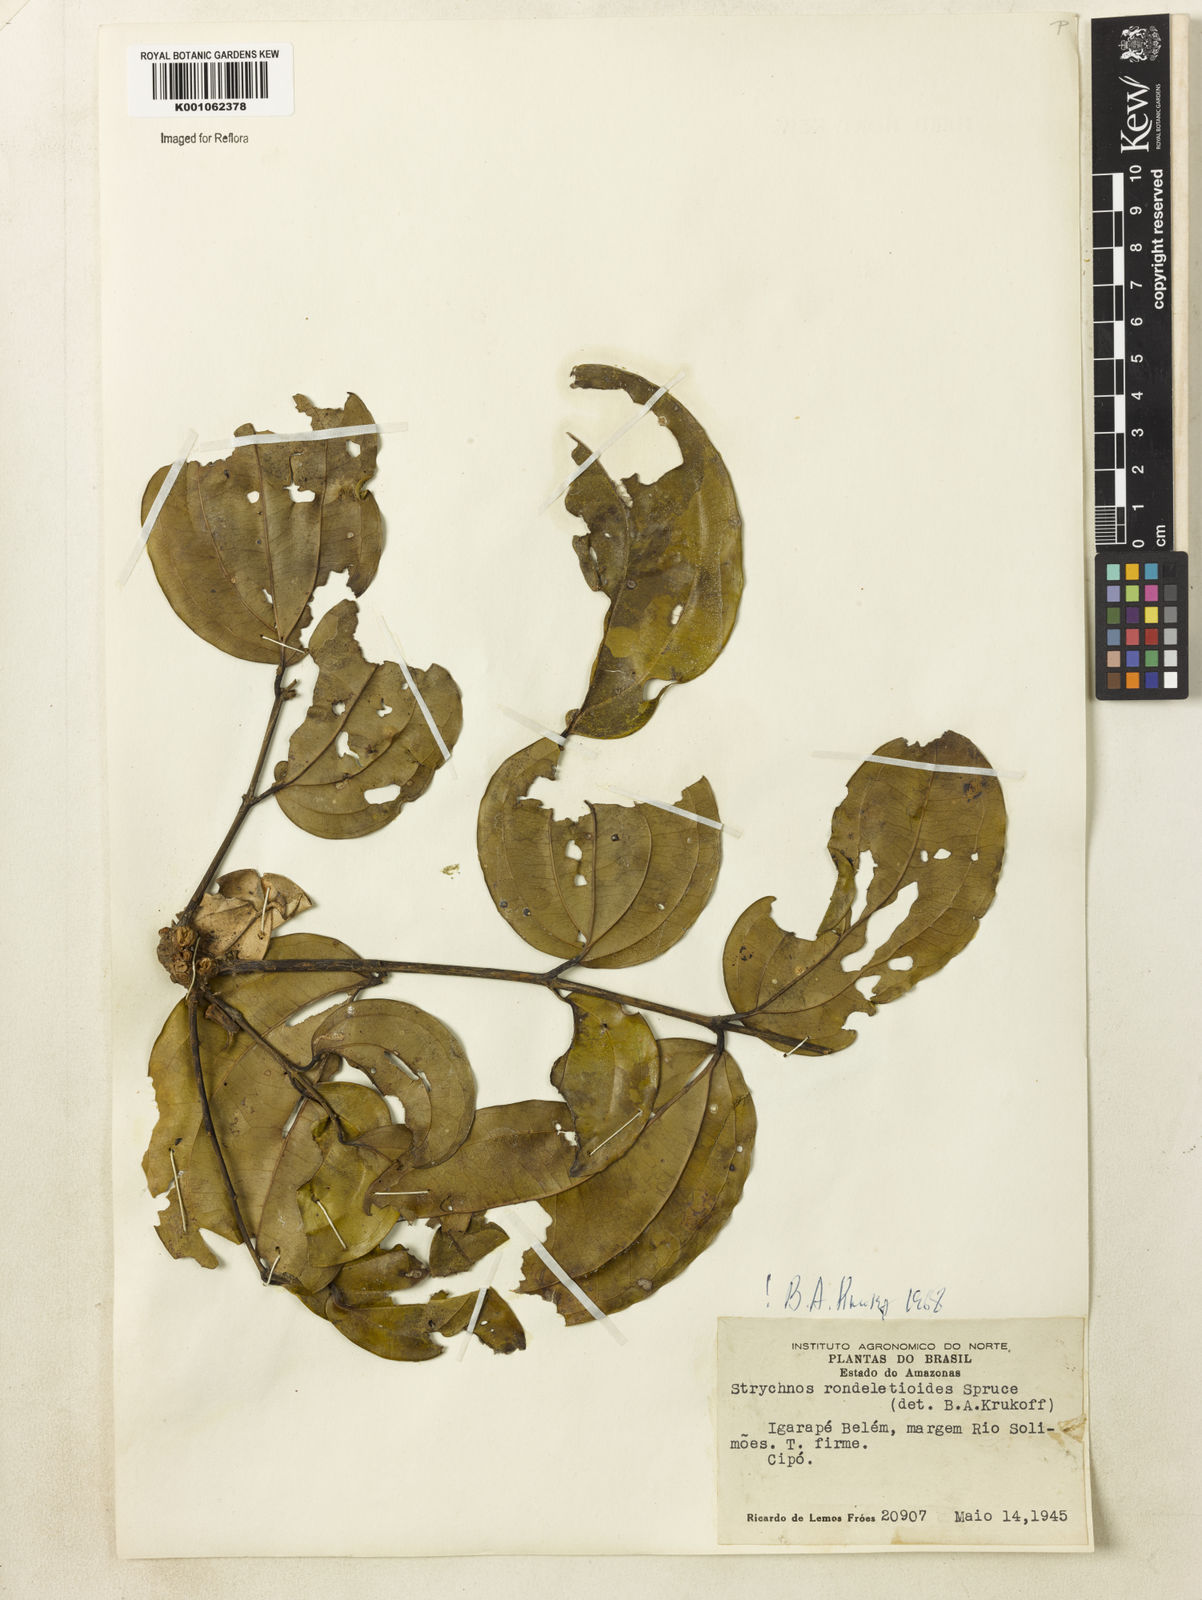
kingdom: Plantae
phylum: Tracheophyta
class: Magnoliopsida
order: Gentianales
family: Loganiaceae
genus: Strychnos
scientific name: Strychnos rondeletioides
